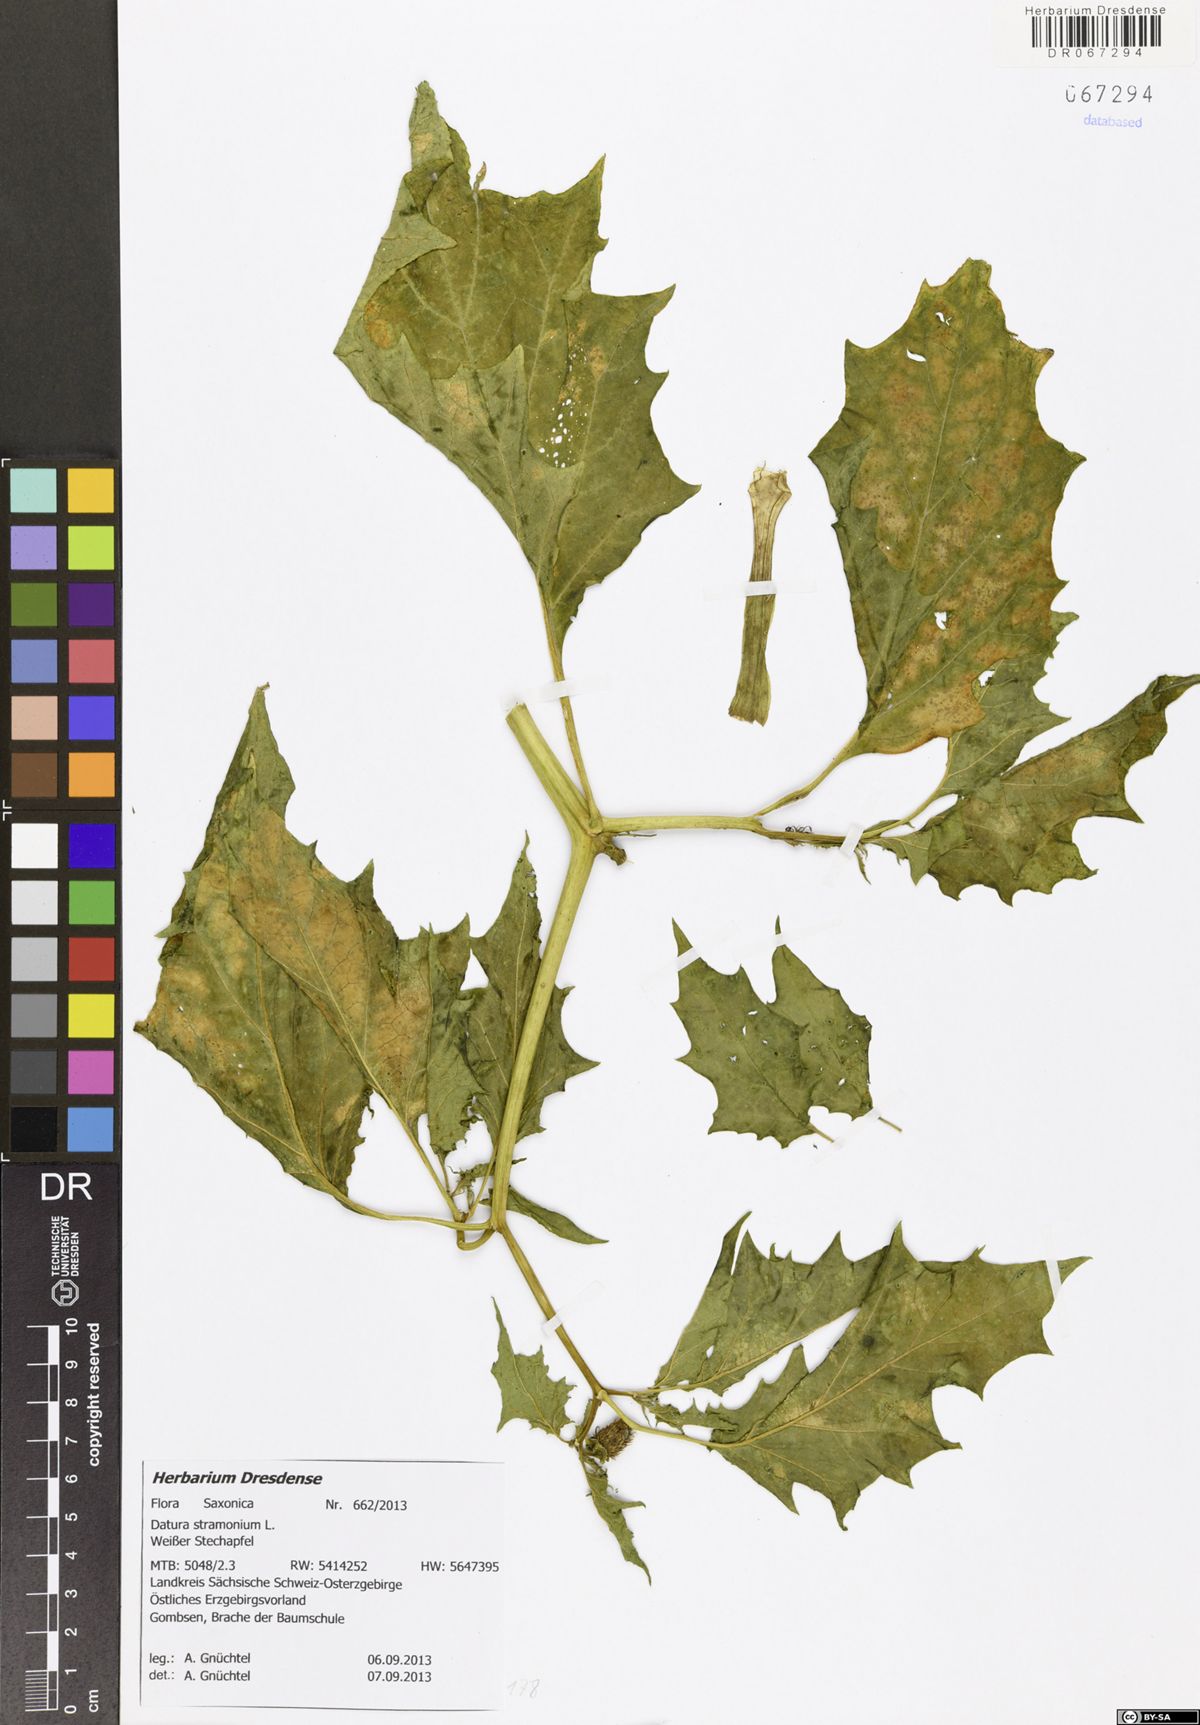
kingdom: Plantae
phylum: Tracheophyta
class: Magnoliopsida
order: Solanales
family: Solanaceae
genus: Datura
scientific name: Datura stramonium
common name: Thorn-apple
